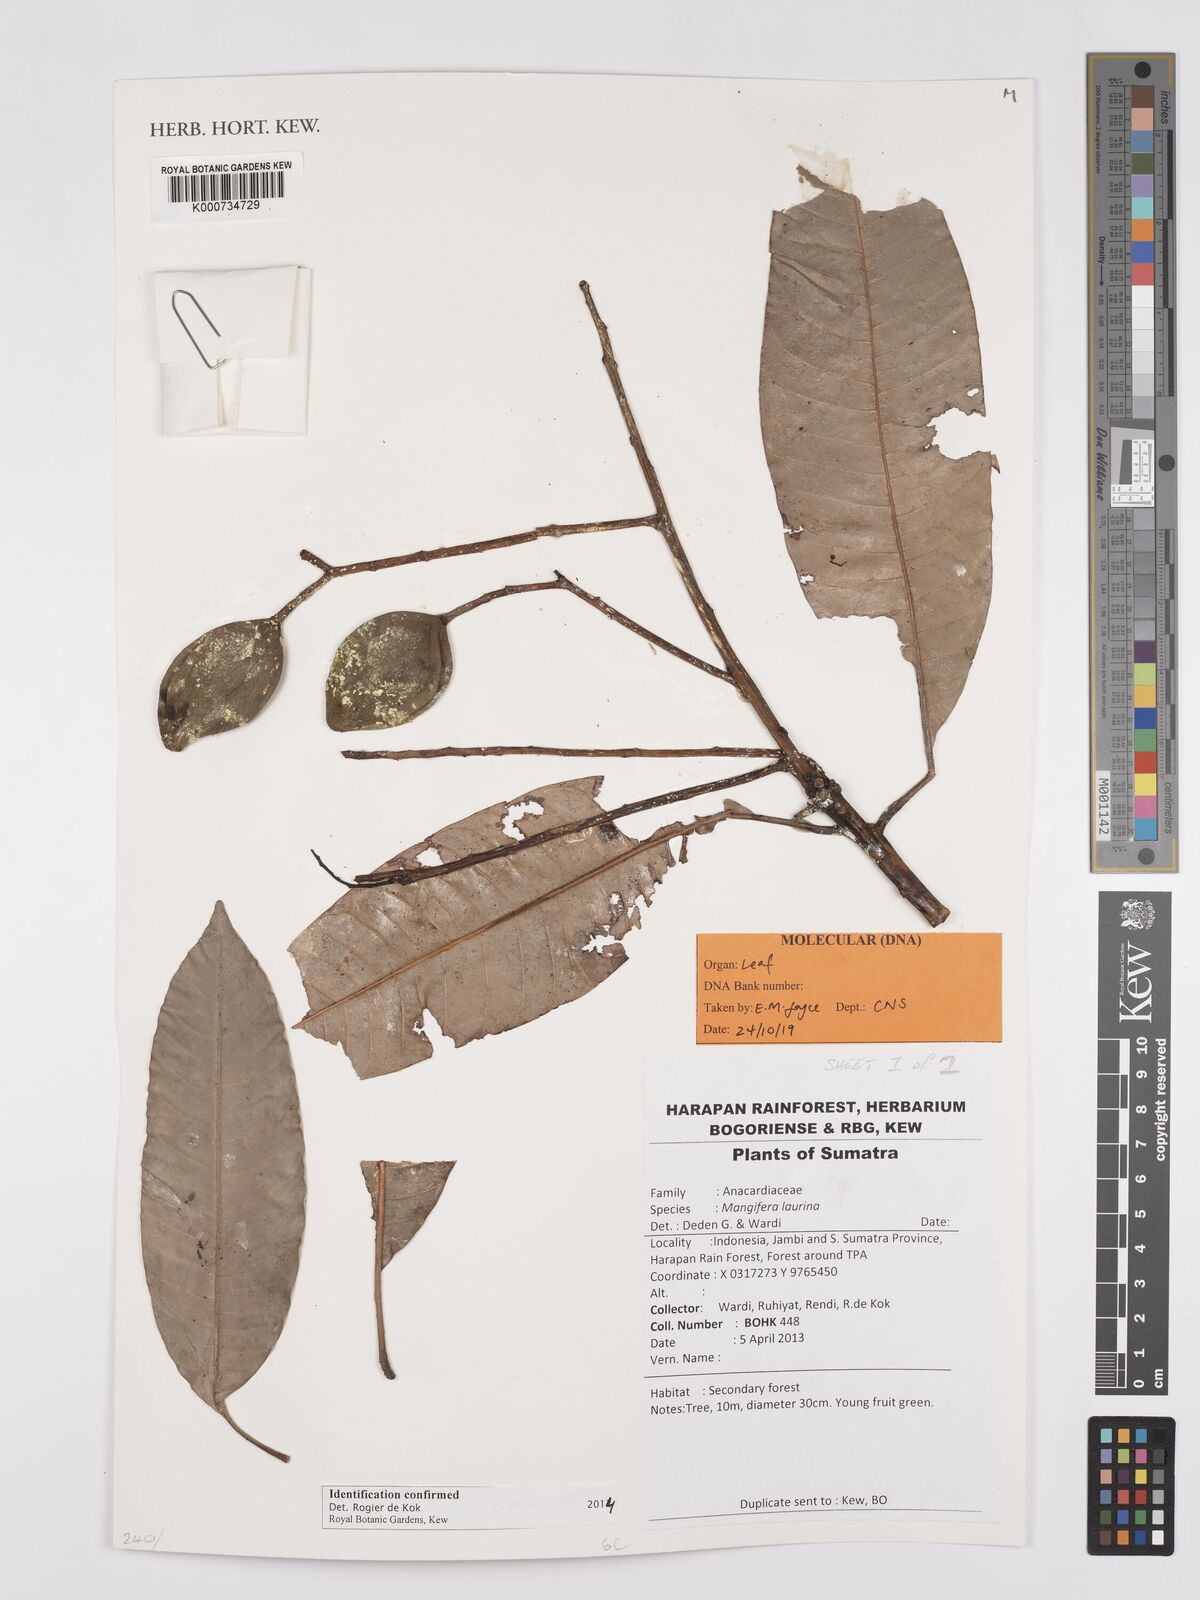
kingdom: Plantae
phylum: Tracheophyta
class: Magnoliopsida
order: Sapindales
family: Anacardiaceae
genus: Mangifera
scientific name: Mangifera laurina
